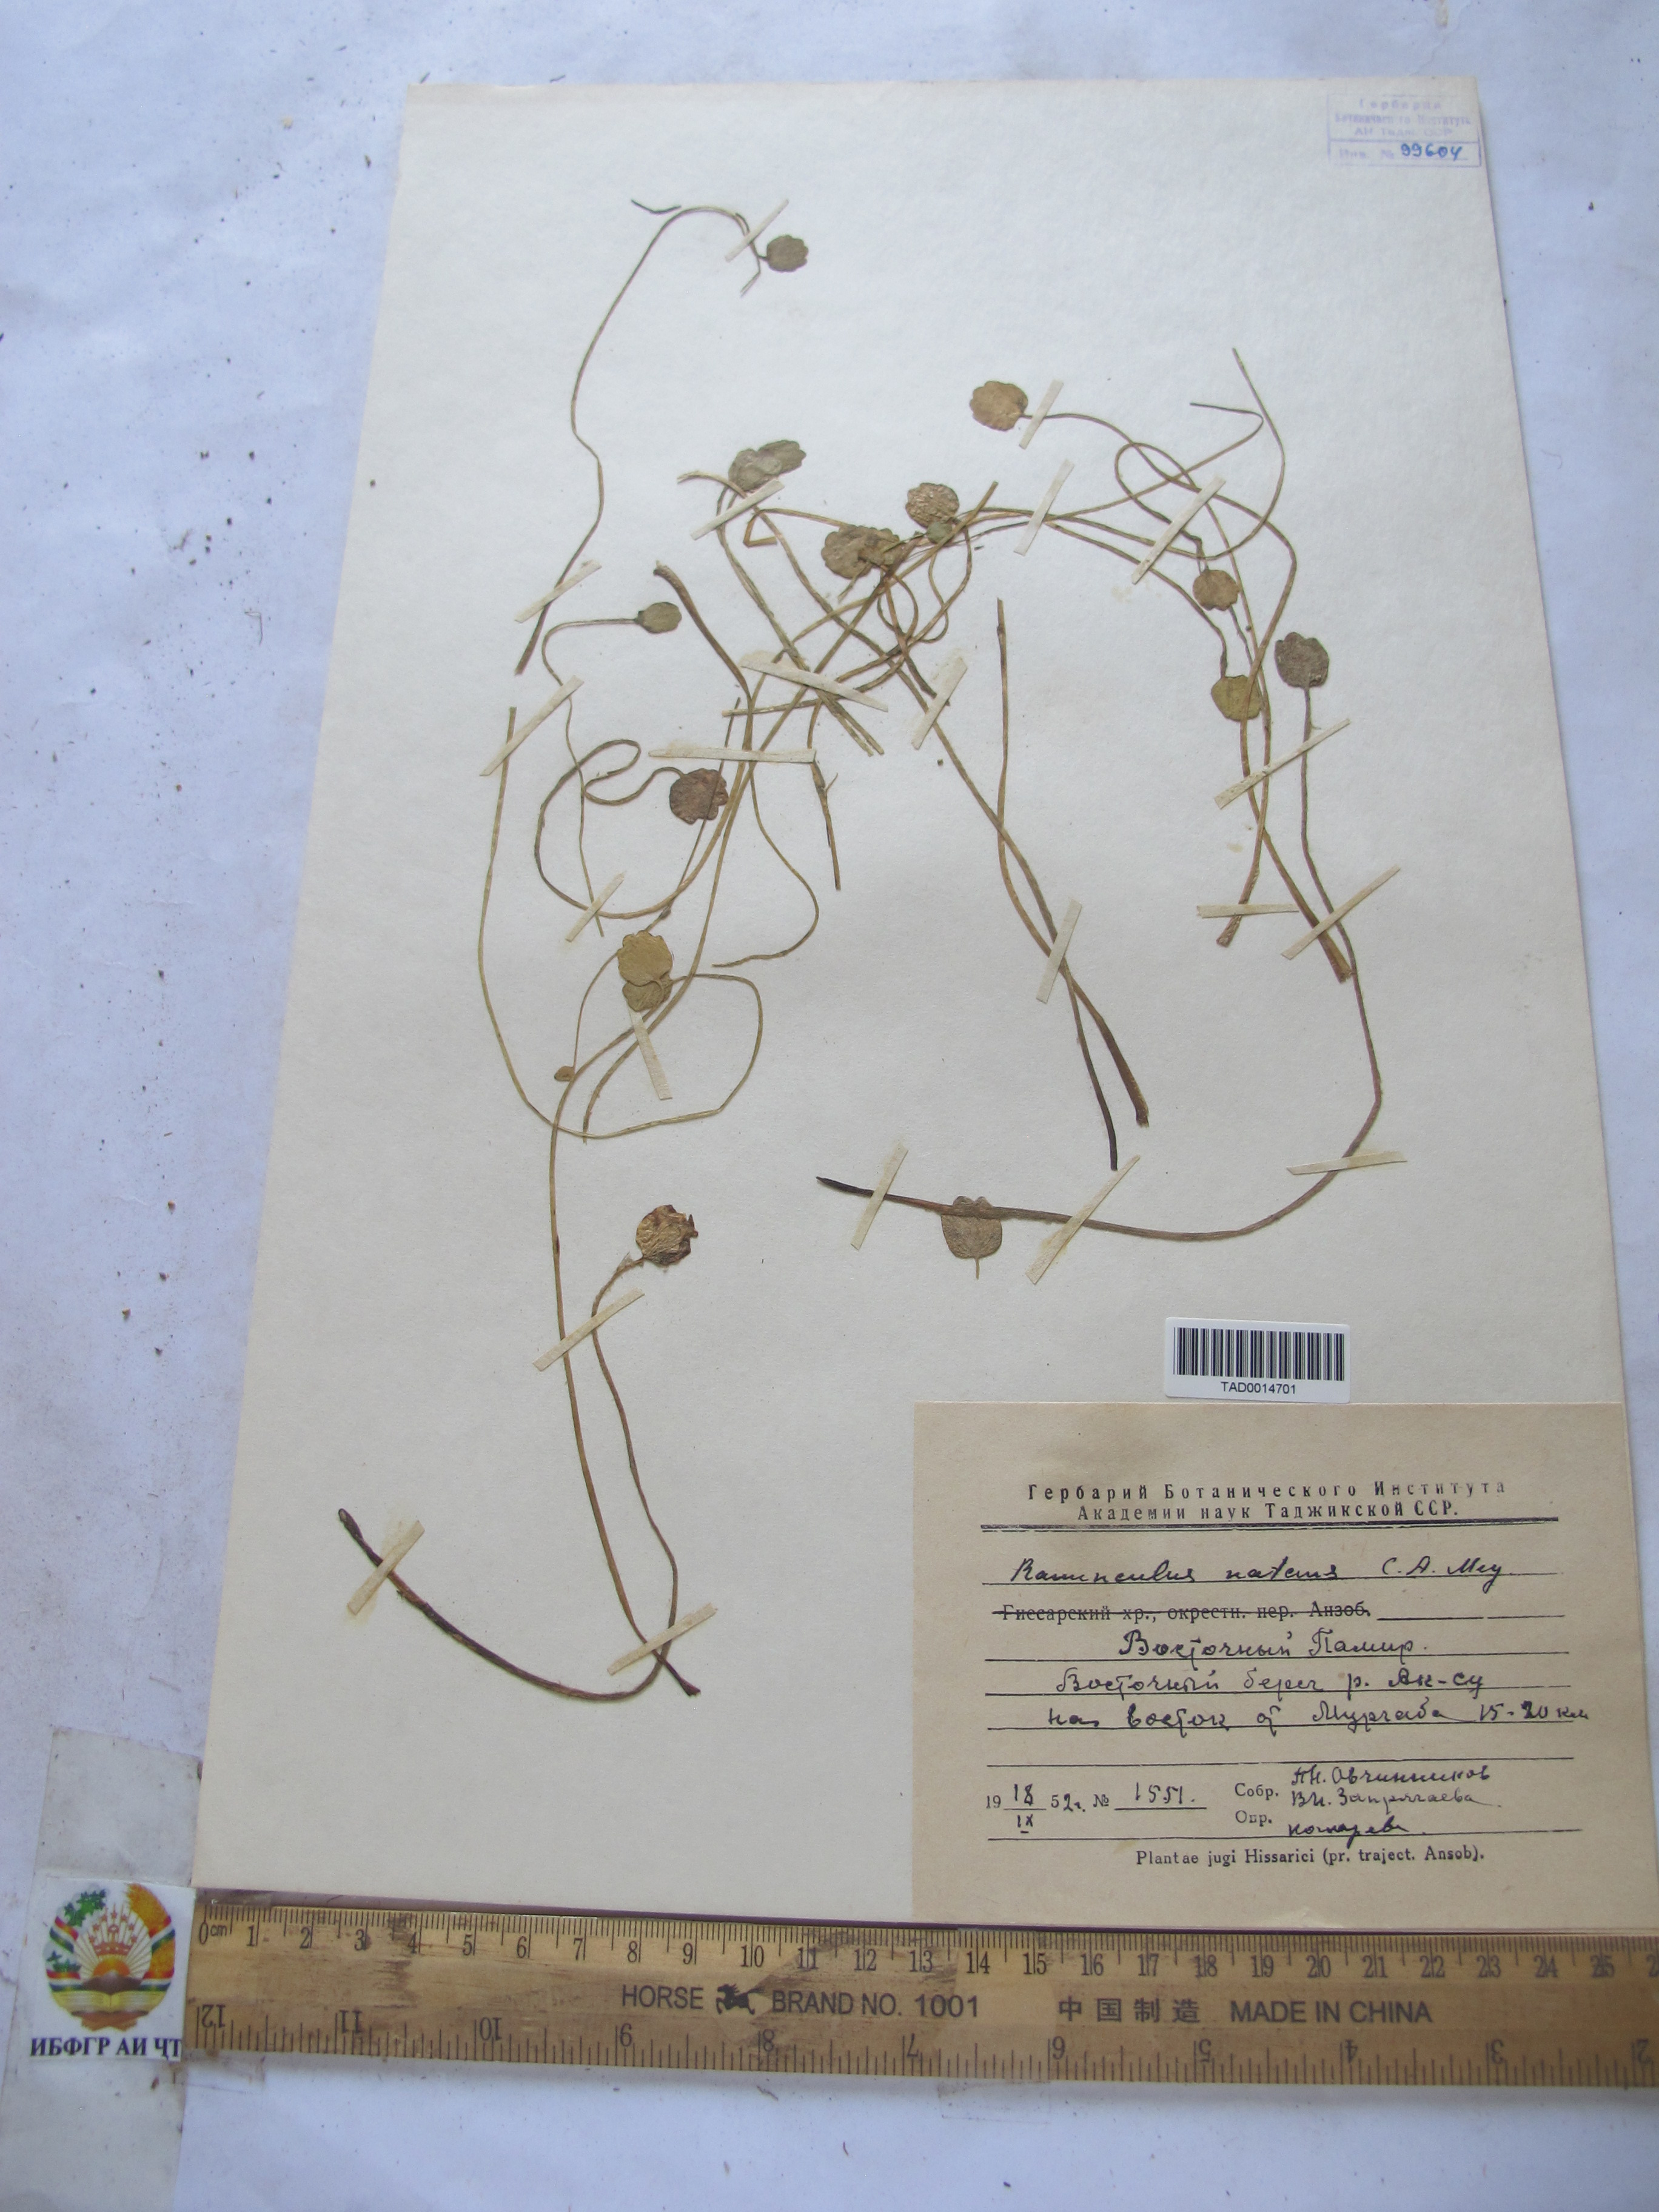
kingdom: Plantae
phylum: Tracheophyta
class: Magnoliopsida
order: Ranunculales
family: Ranunculaceae
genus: Ranunculus
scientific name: Ranunculus natans
